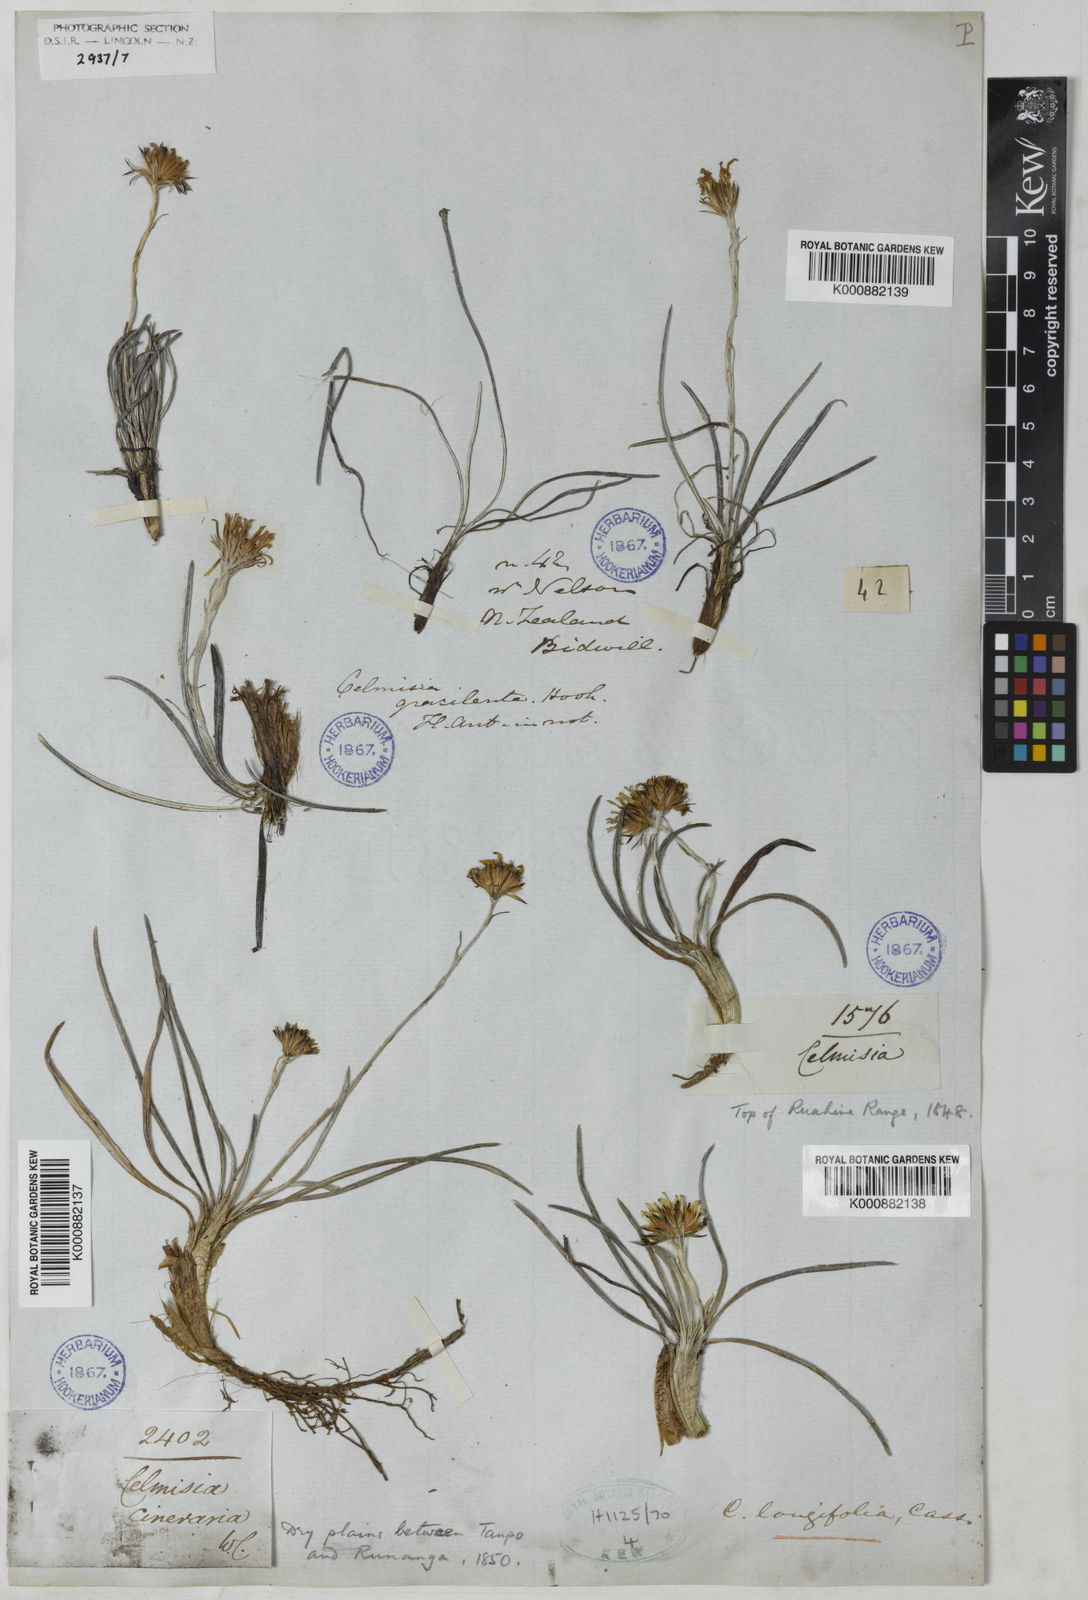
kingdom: Plantae
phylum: Tracheophyta
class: Magnoliopsida
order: Asterales
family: Asteraceae
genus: Celmisia
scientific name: Celmisia graminifolia
